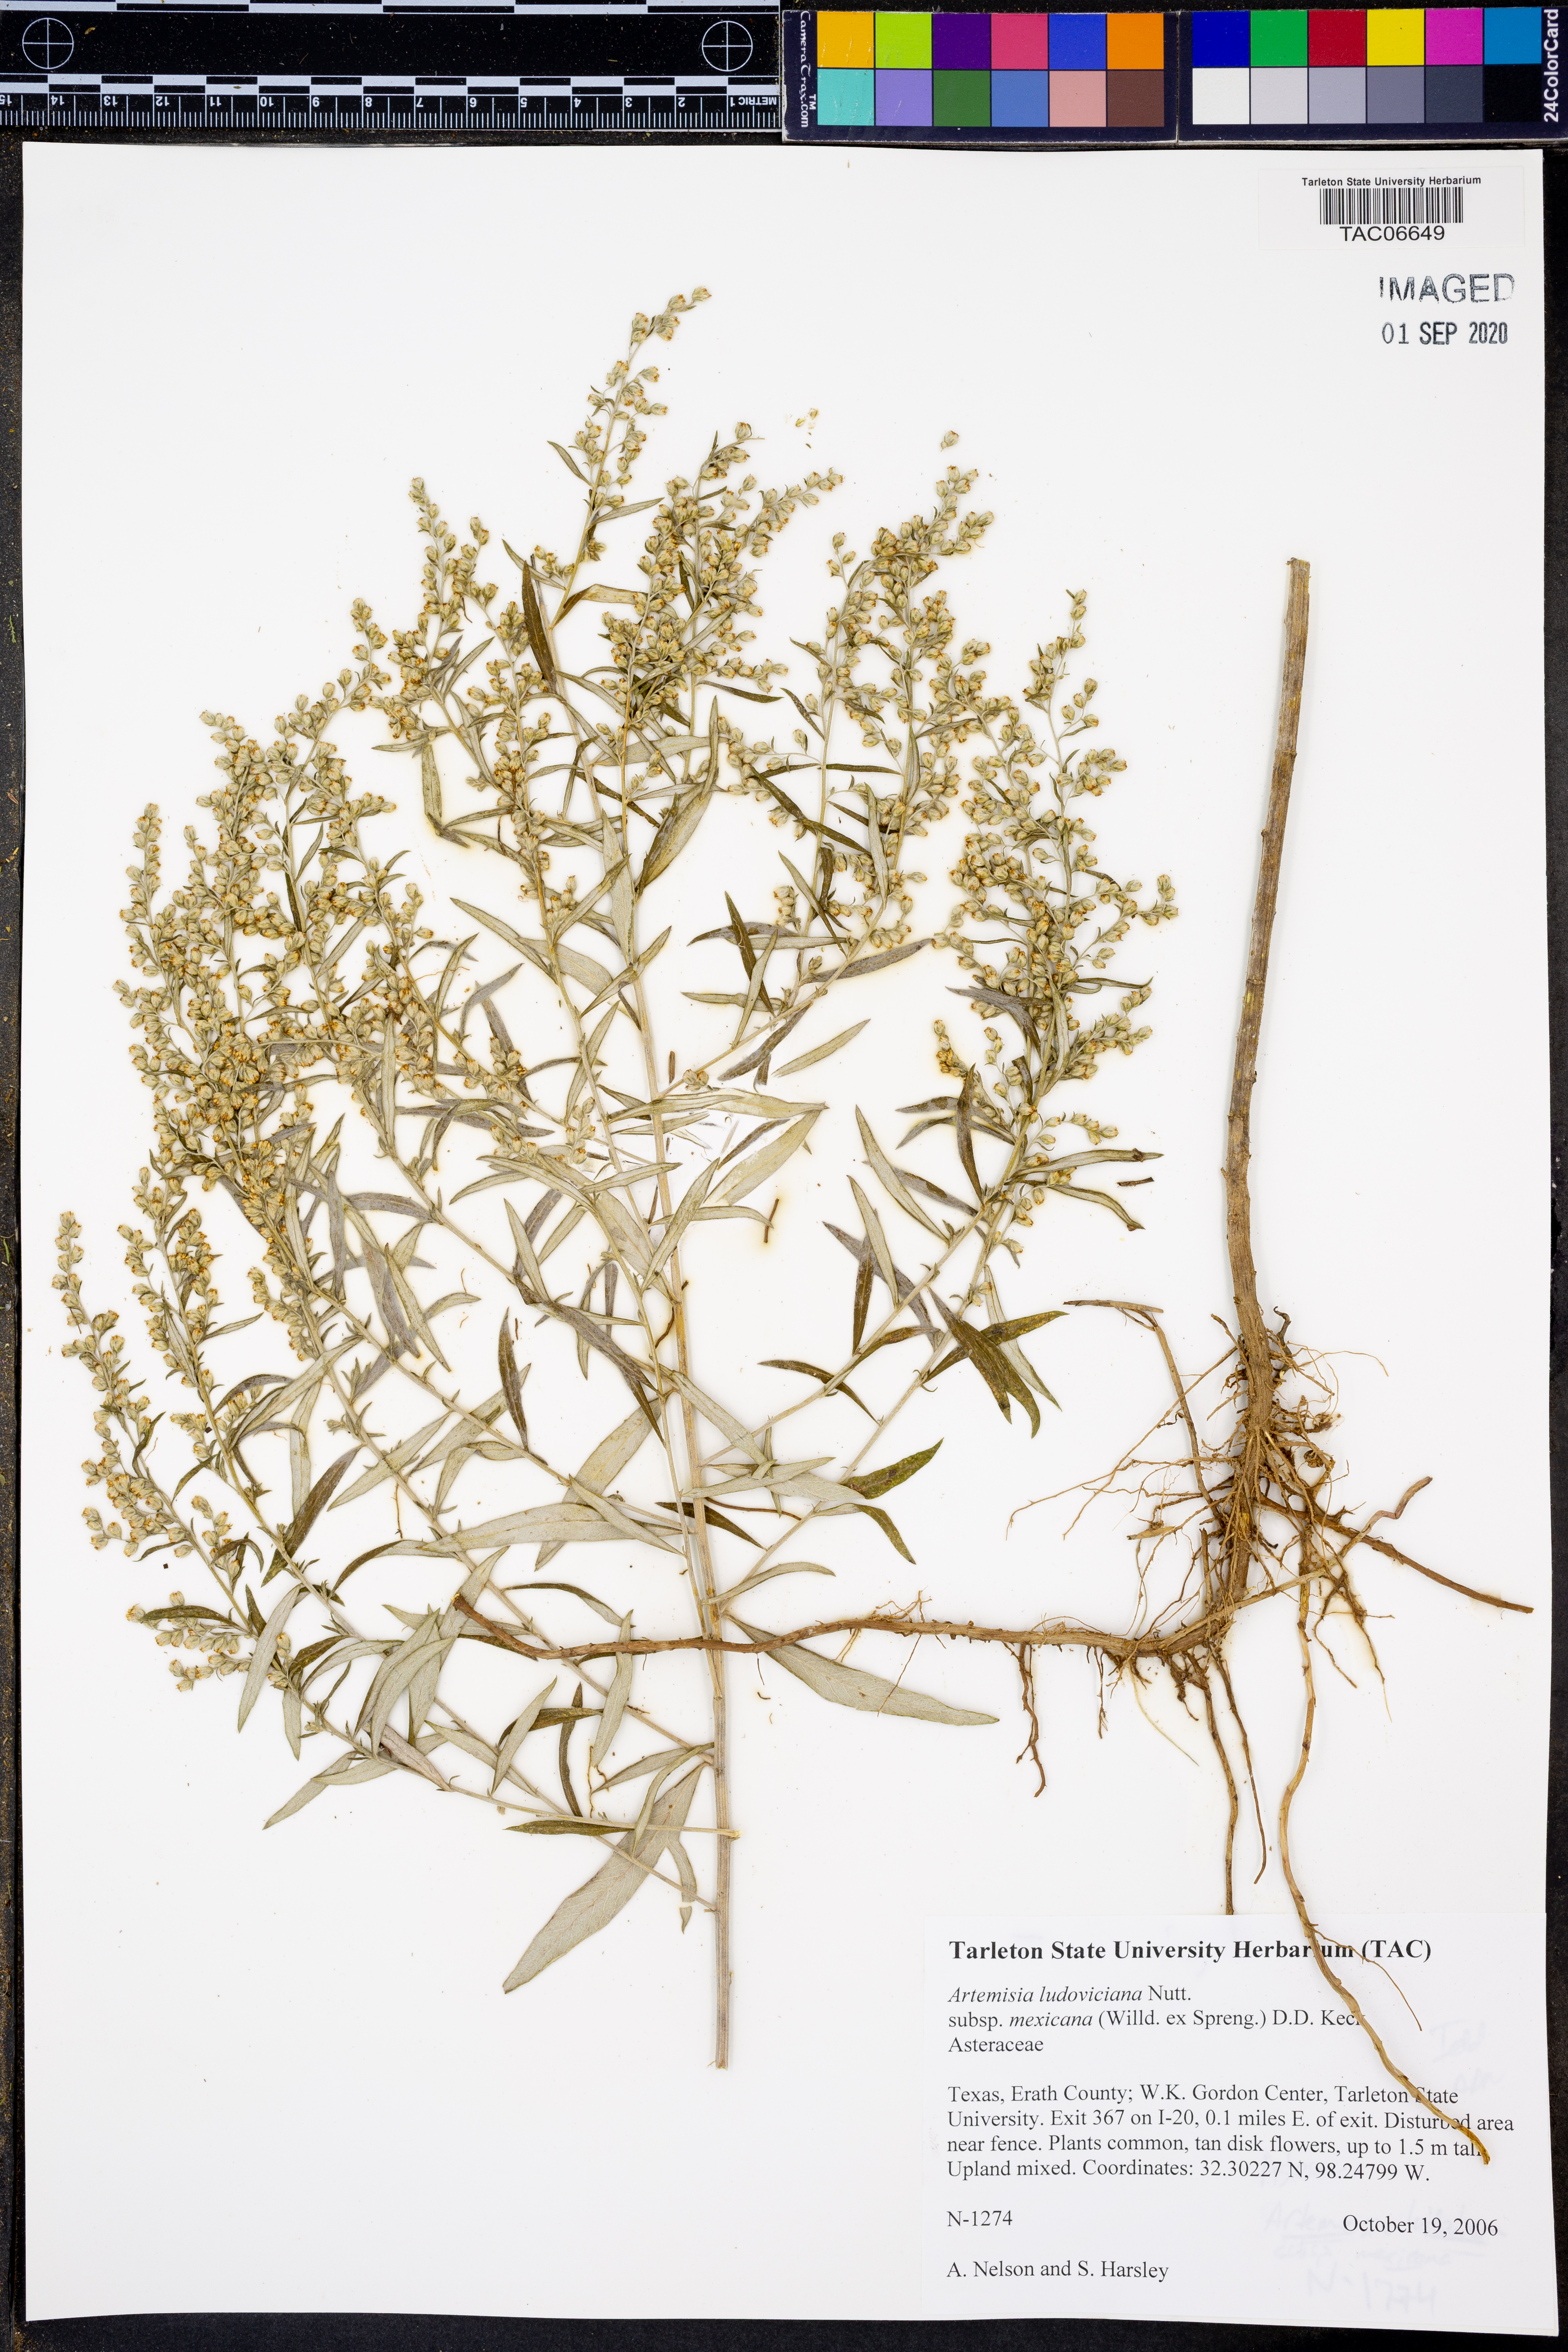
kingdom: Plantae
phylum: Tracheophyta
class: Magnoliopsida
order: Asterales
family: Asteraceae
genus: Artemisia
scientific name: Artemisia ludoviciana
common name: Western mugwort
